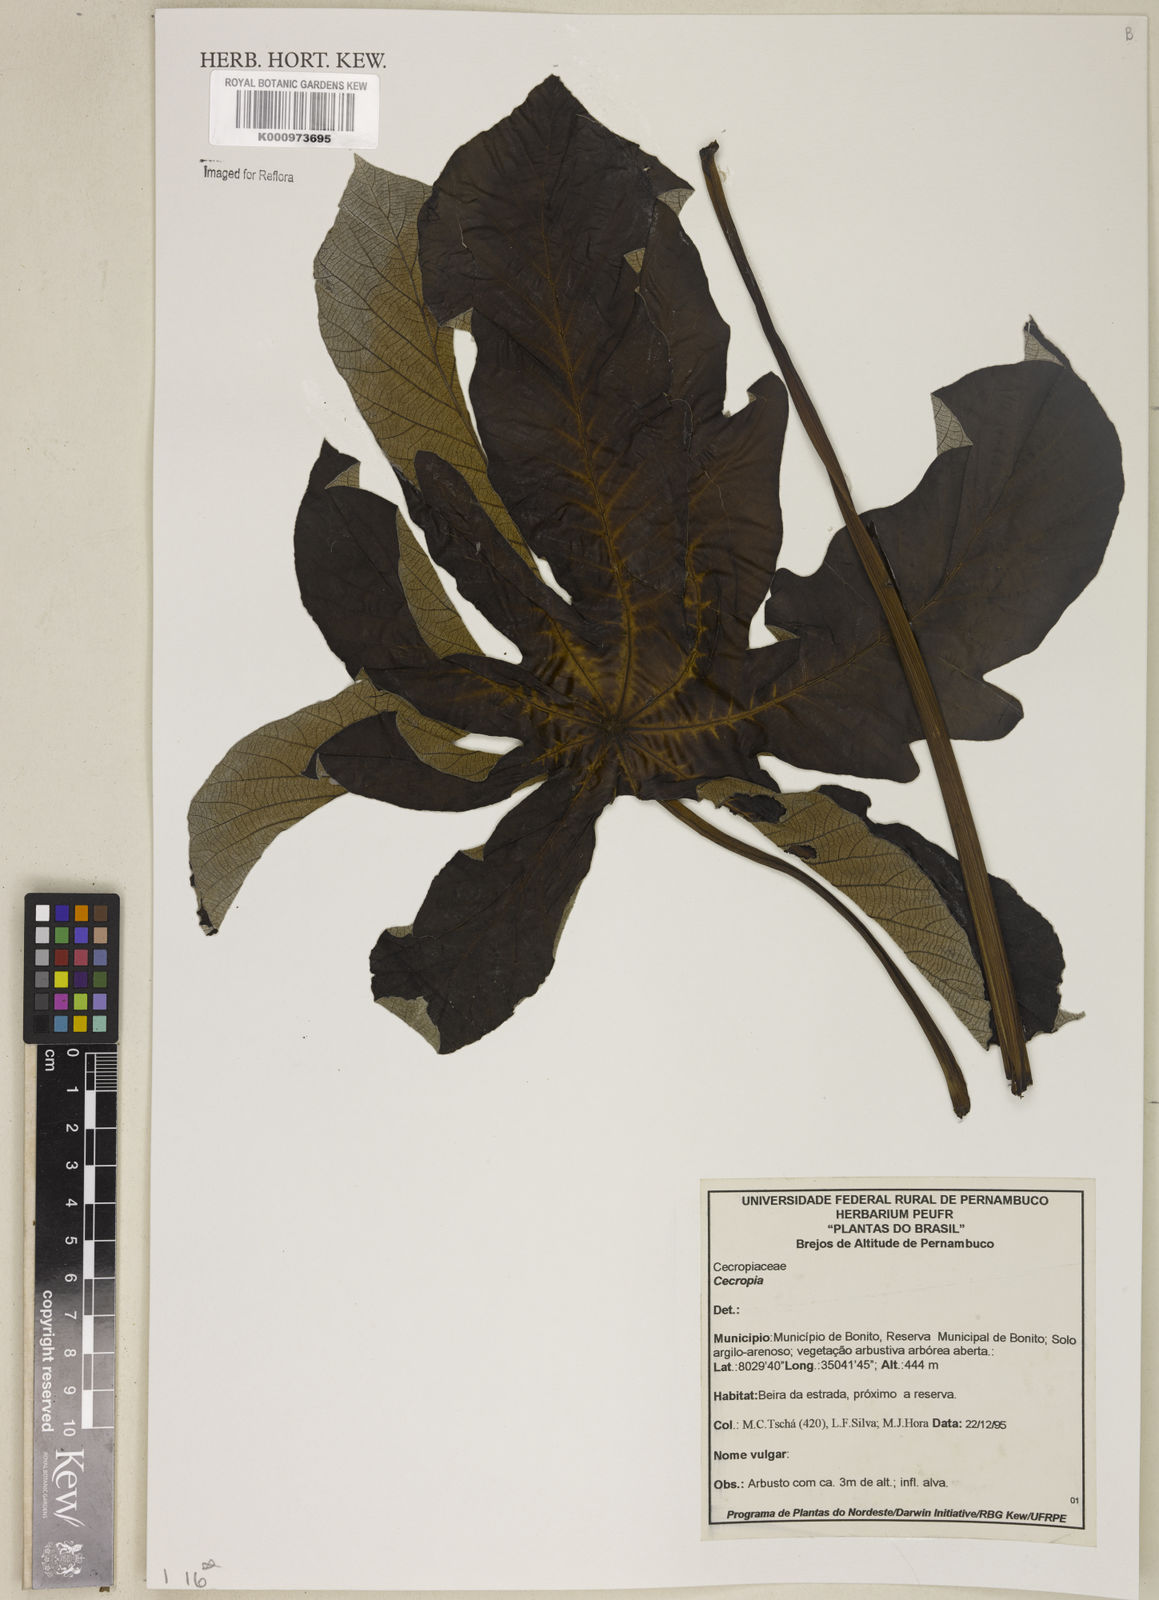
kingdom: Plantae
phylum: Tracheophyta
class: Magnoliopsida
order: Rosales
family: Urticaceae
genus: Cecropia
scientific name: Cecropia
